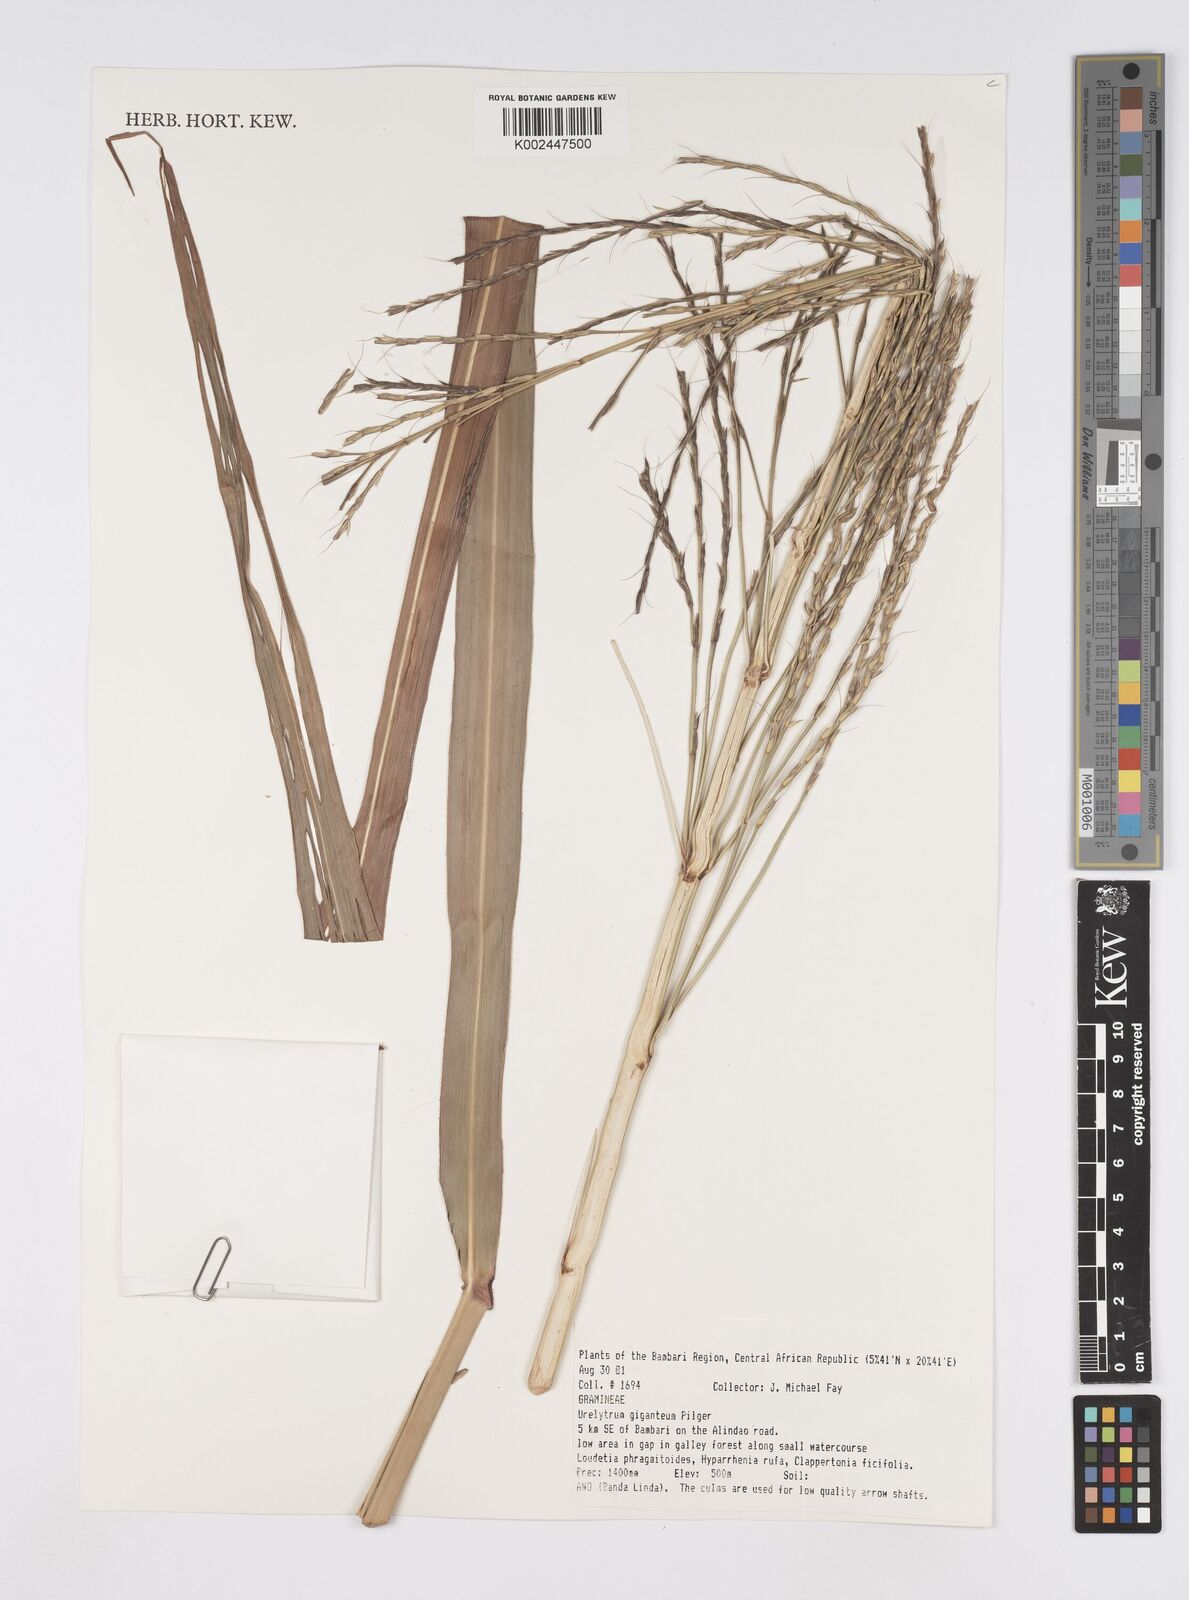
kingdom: Plantae
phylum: Tracheophyta
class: Liliopsida
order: Poales
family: Poaceae
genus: Urelytrum
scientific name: Urelytrum giganteum
